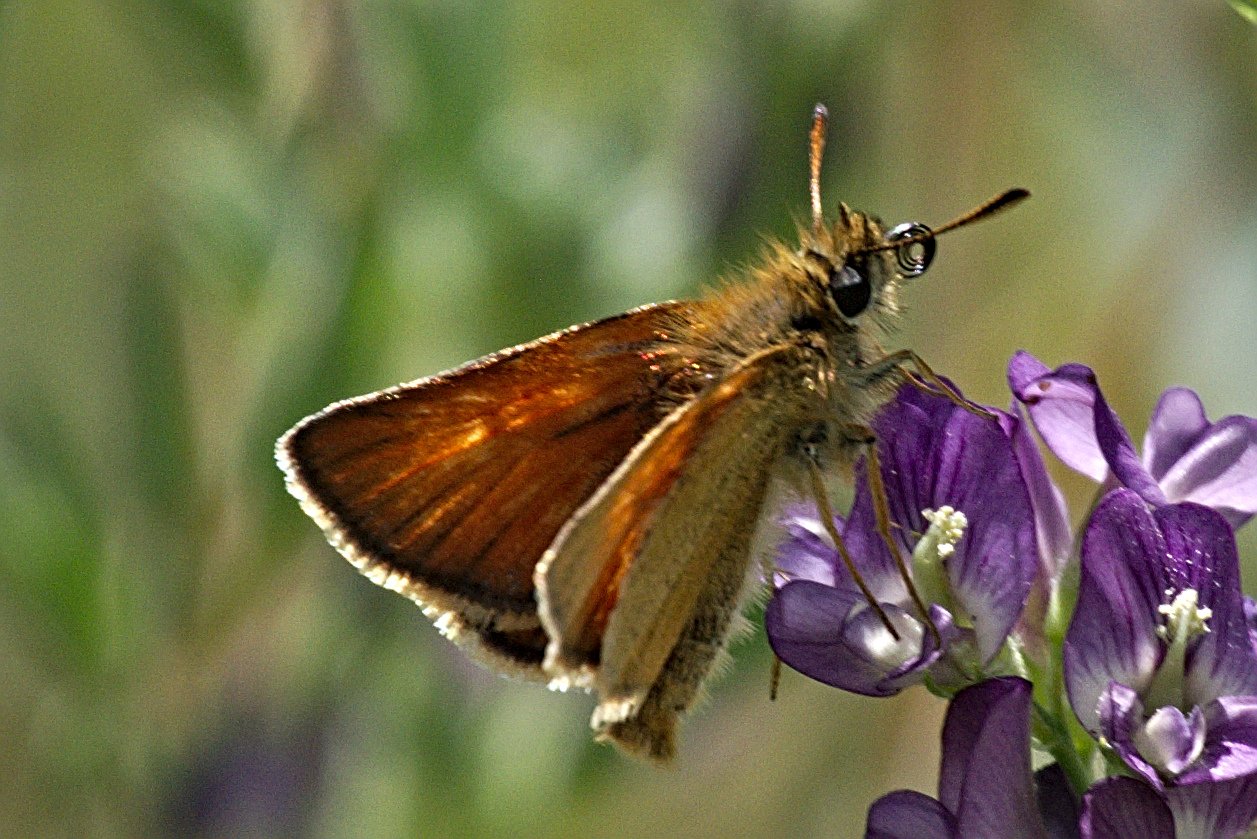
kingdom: Animalia
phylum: Arthropoda
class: Insecta
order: Lepidoptera
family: Hesperiidae
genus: Thymelicus
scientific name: Thymelicus lineola
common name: European Skipper
